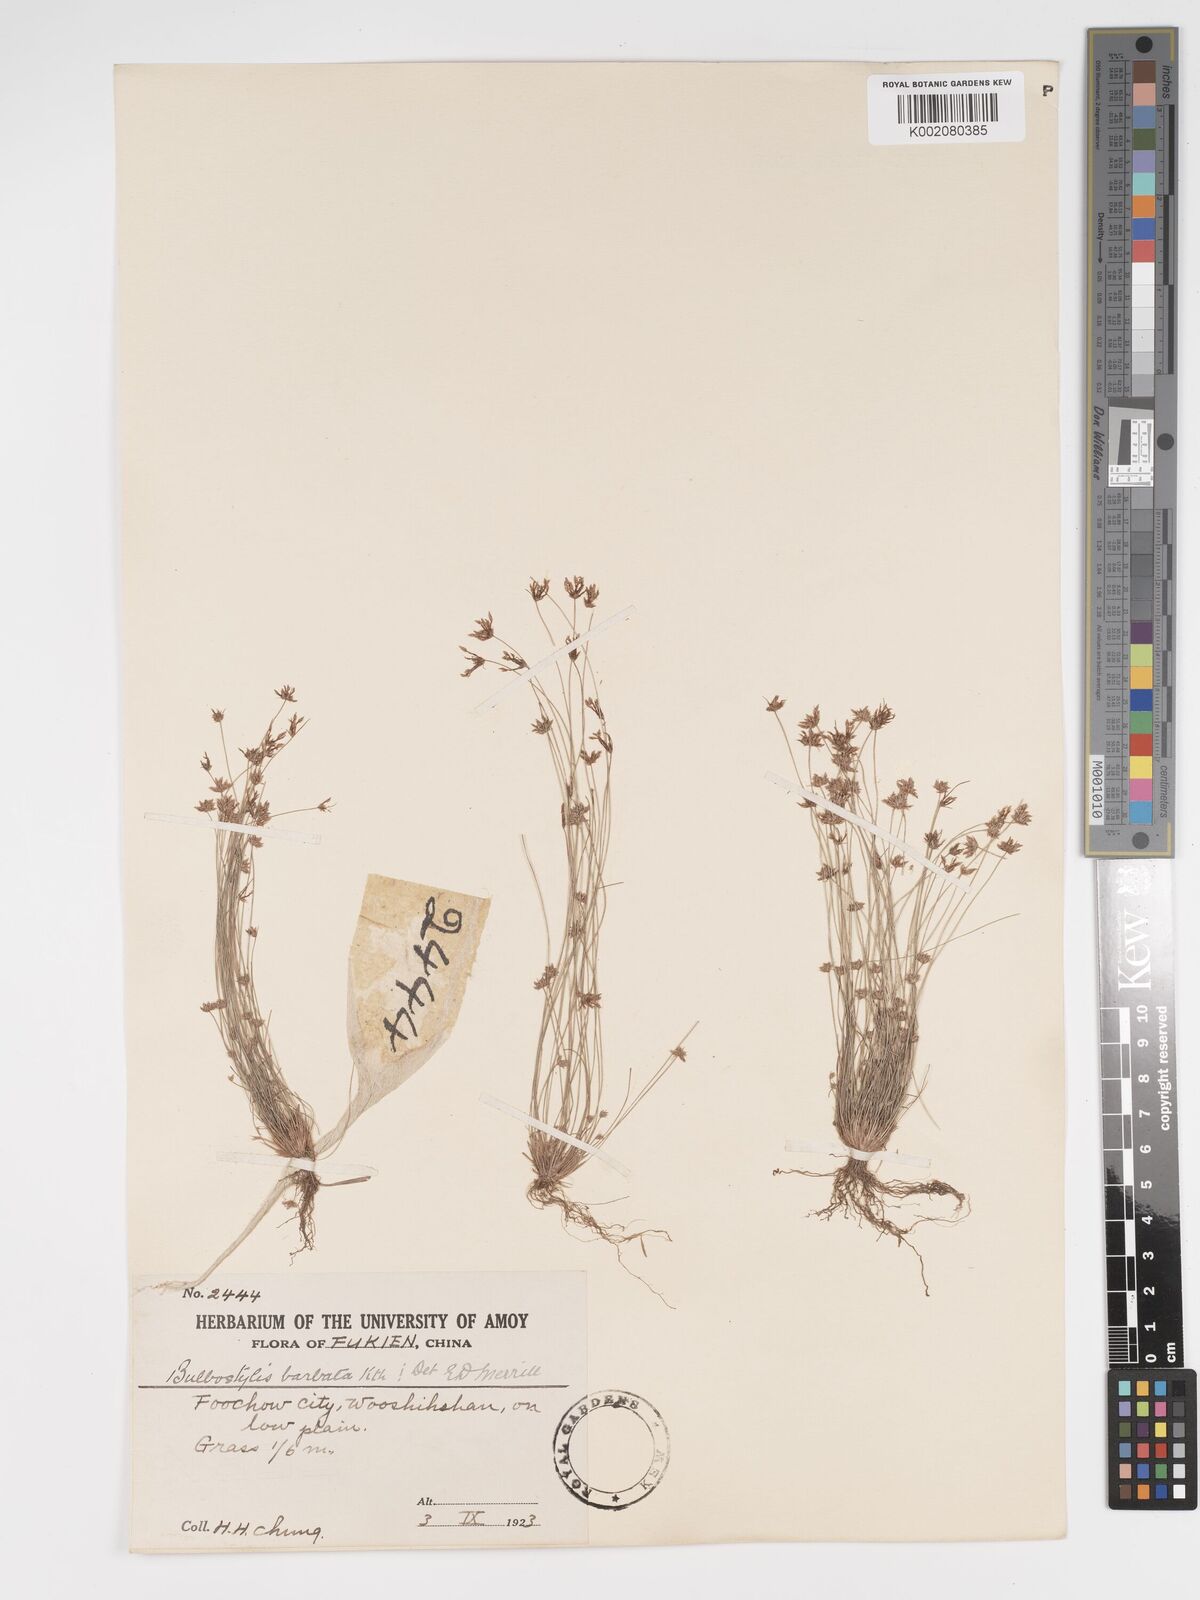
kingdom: Plantae
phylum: Tracheophyta
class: Liliopsida
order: Poales
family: Cyperaceae
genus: Bulbostylis
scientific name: Bulbostylis barbata
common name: Watergrass
